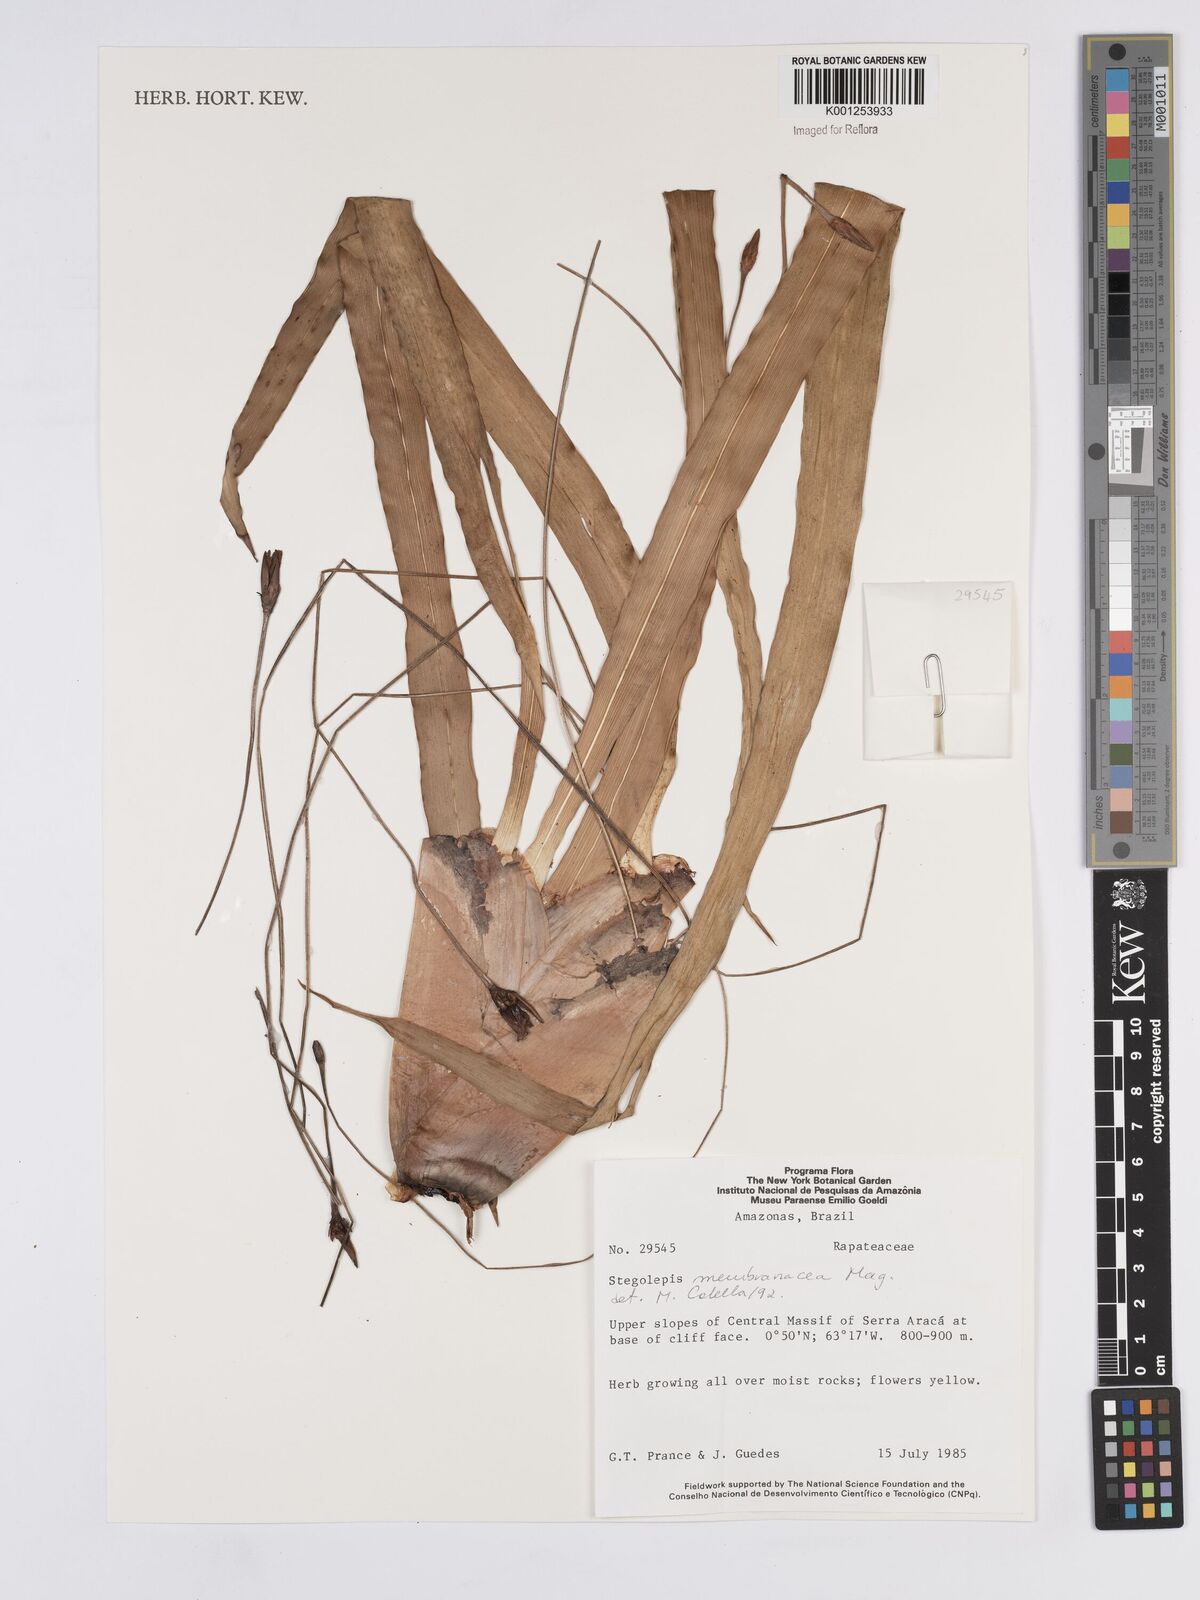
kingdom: Plantae
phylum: Tracheophyta
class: Liliopsida
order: Poales
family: Rapateaceae
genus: Stegolepis
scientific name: Stegolepis membranacea
